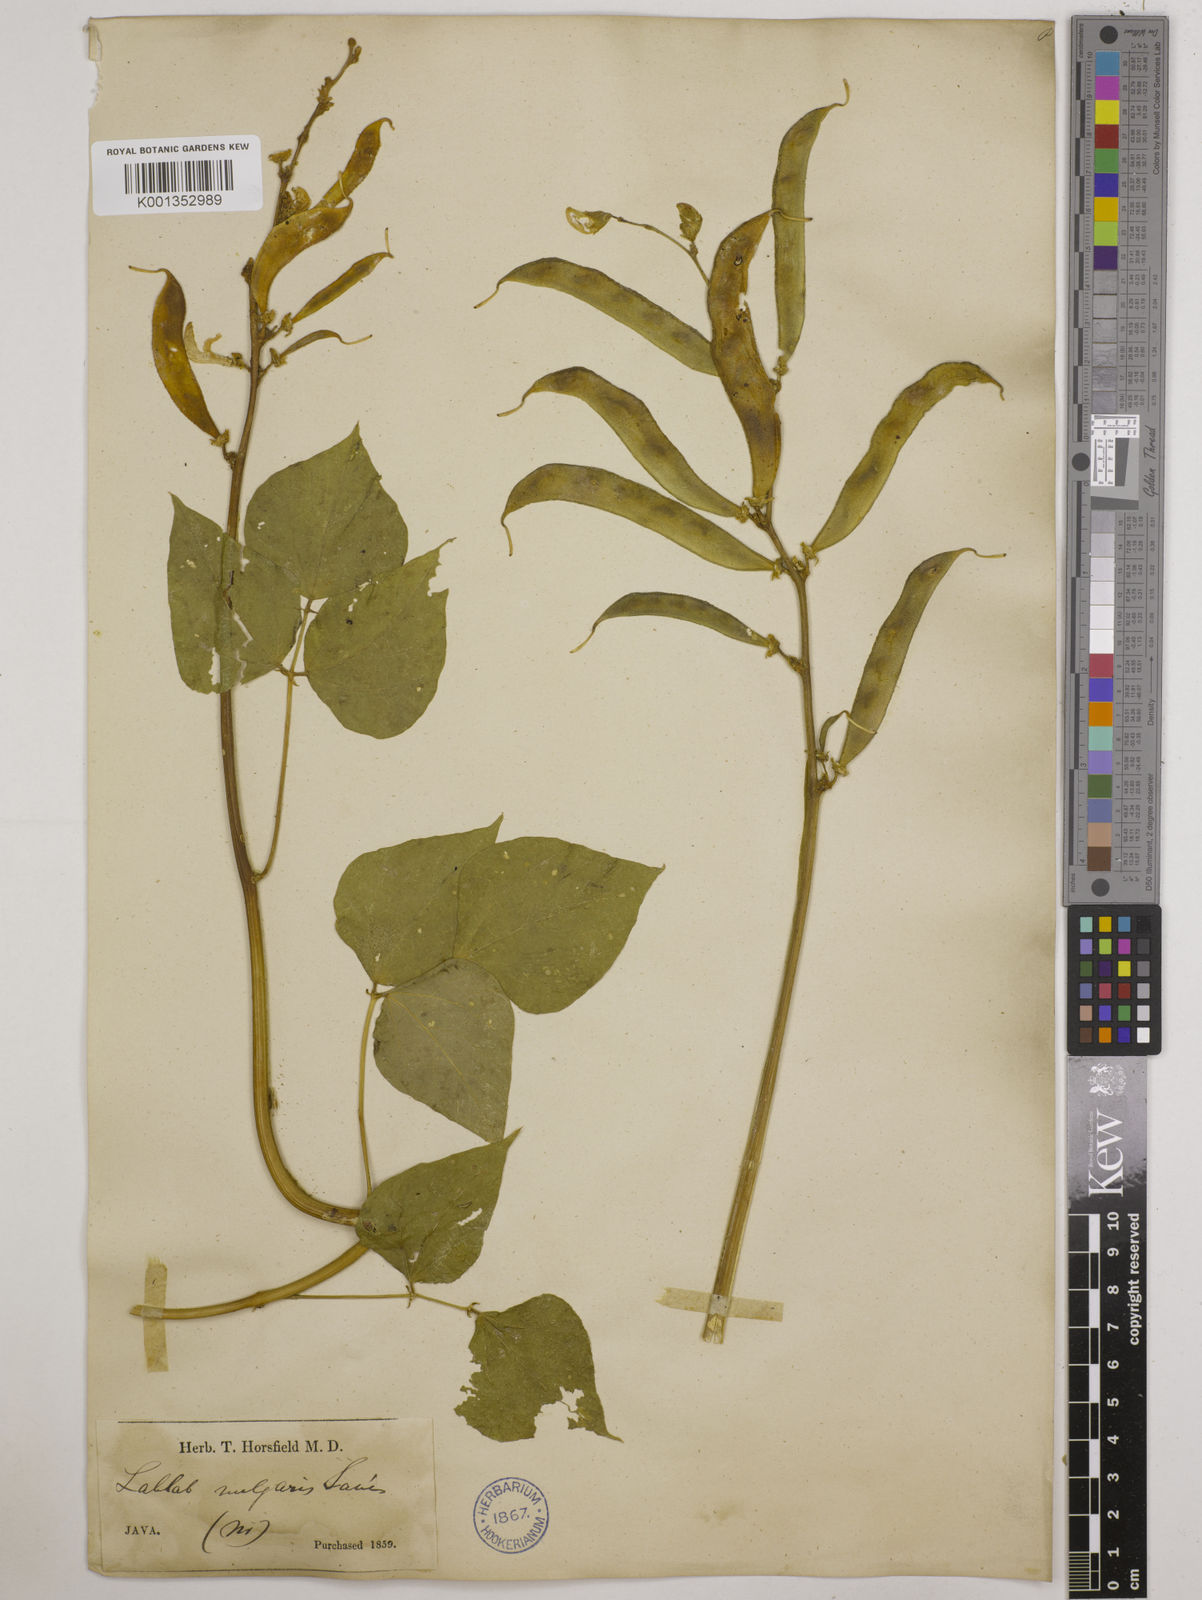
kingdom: Plantae
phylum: Tracheophyta
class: Magnoliopsida
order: Fabales
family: Fabaceae
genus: Lablab
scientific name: Lablab purpureus
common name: Lablab-bean
